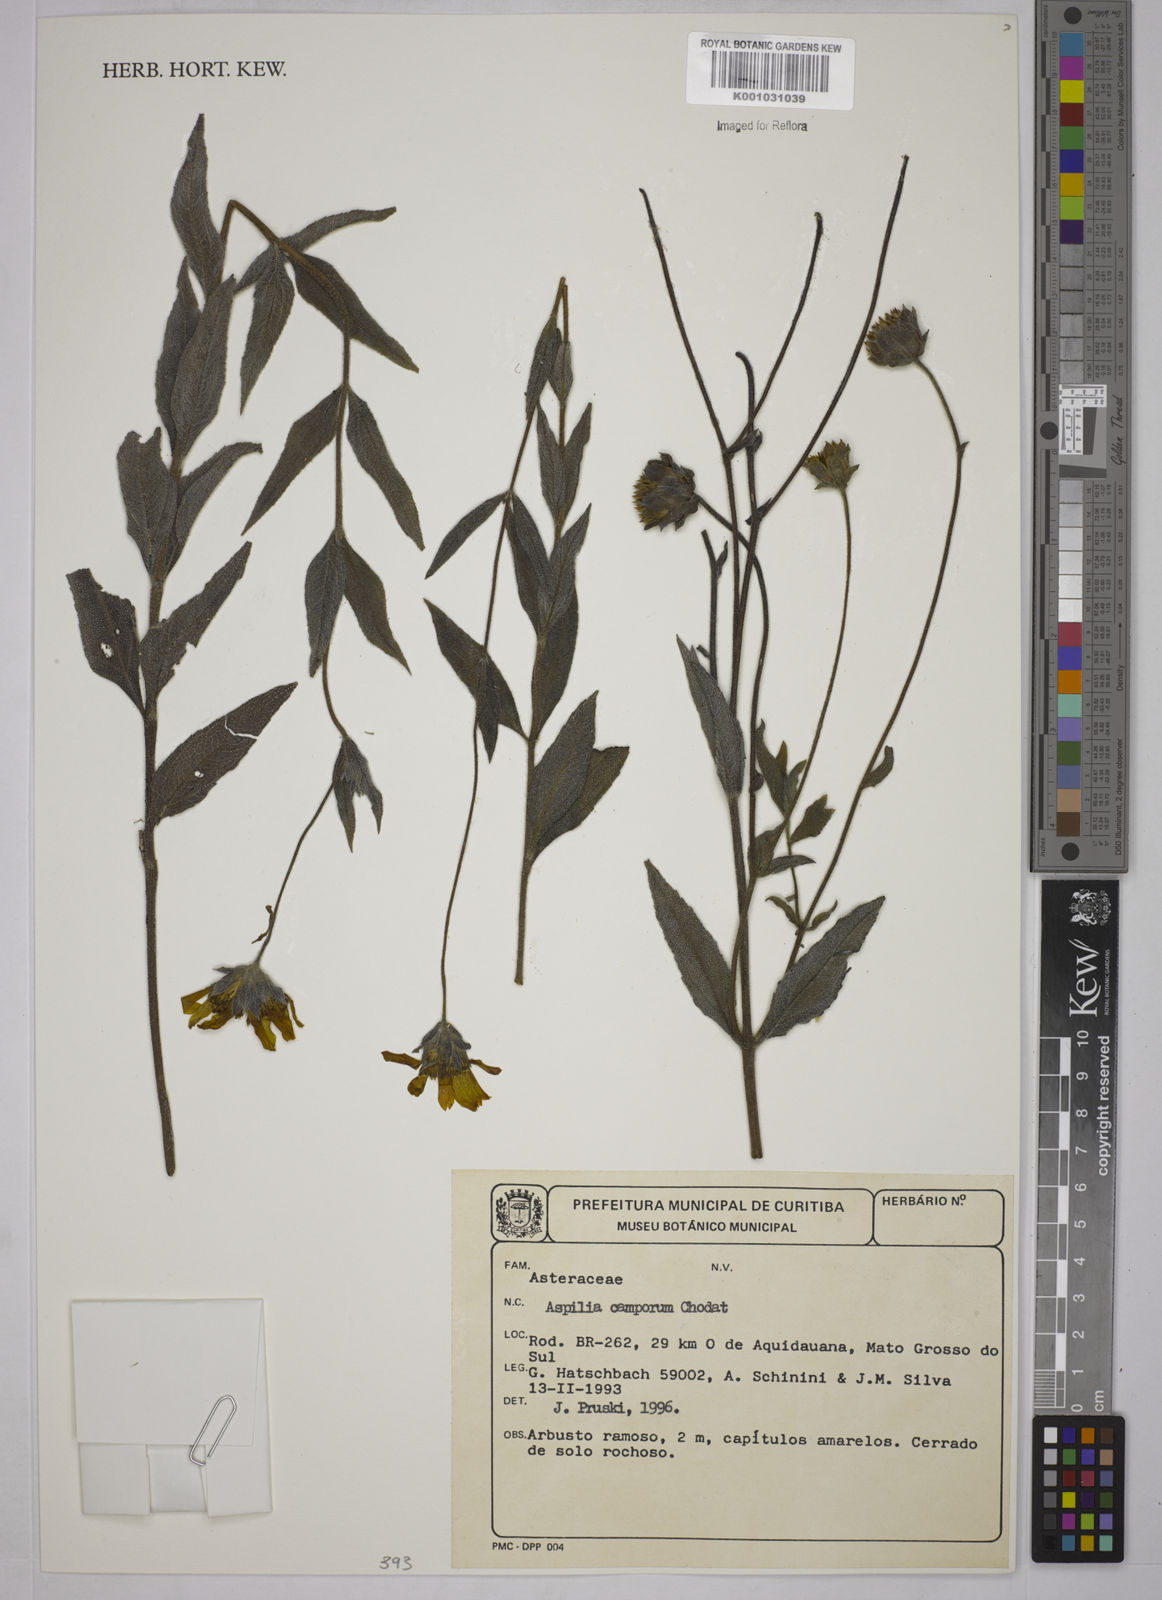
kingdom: Plantae
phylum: Tracheophyta
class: Magnoliopsida
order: Asterales
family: Asteraceae
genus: Wedelia
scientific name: Wedelia camporum
